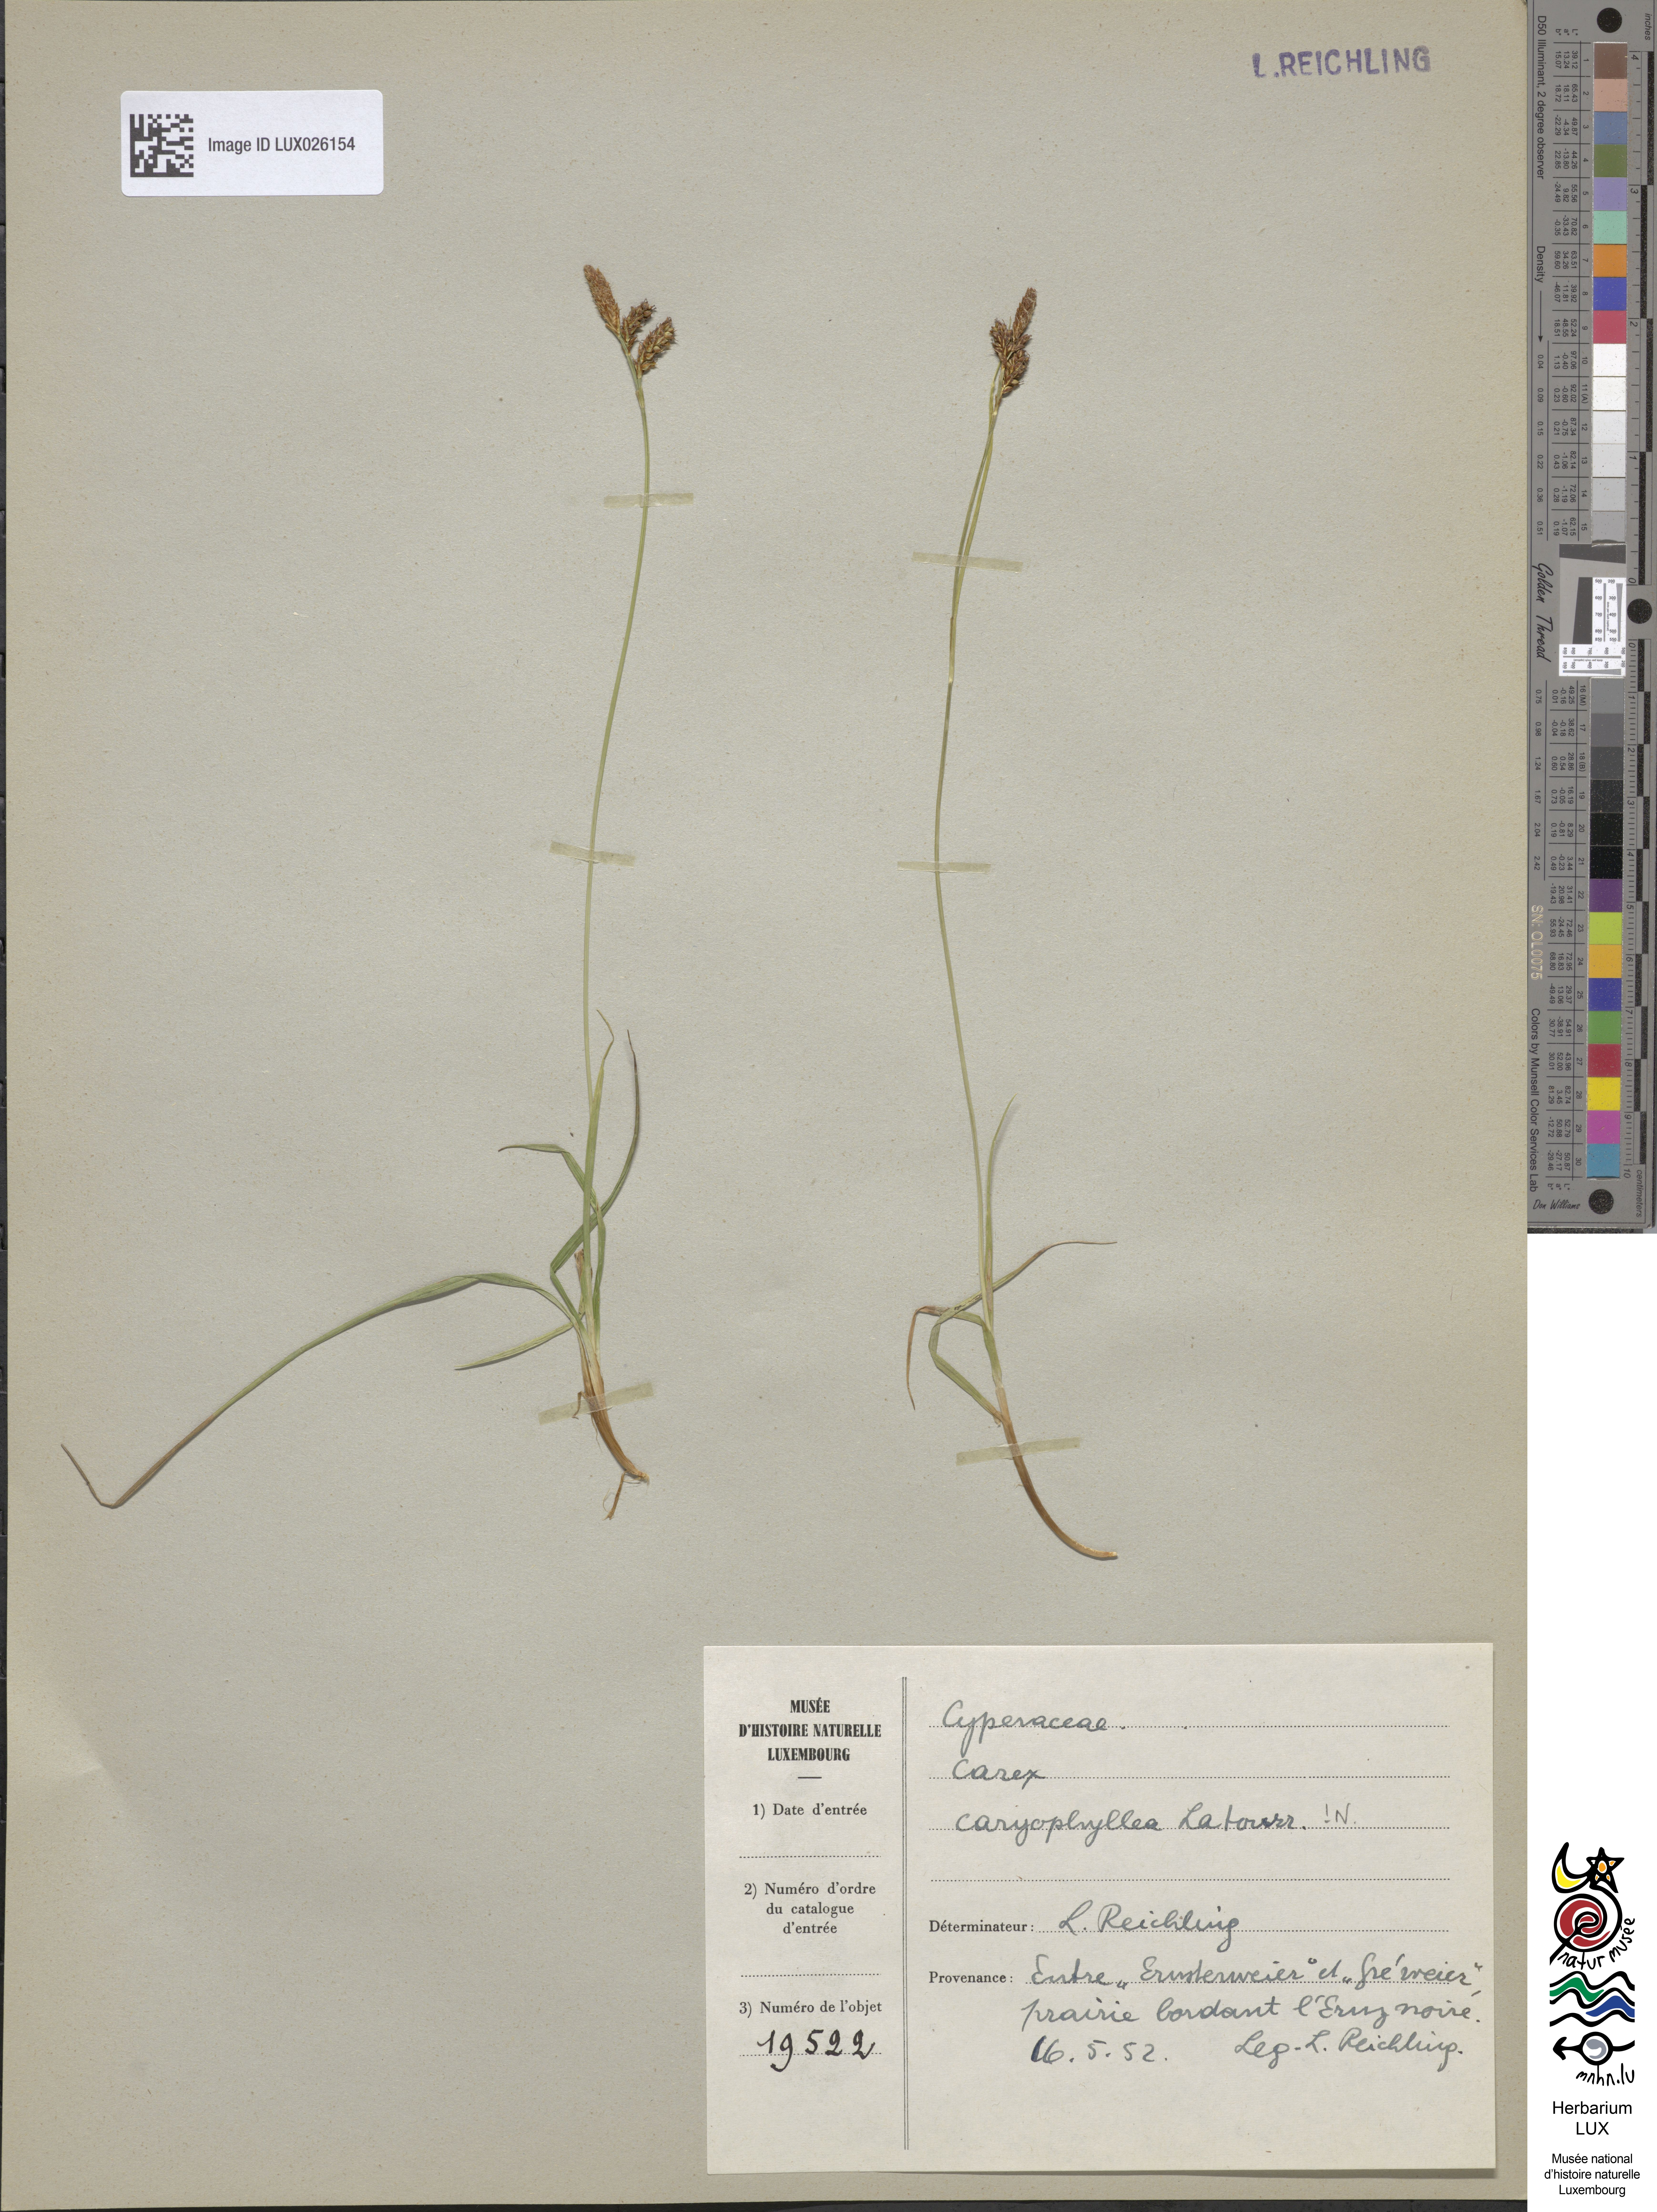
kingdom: Plantae
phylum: Tracheophyta
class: Liliopsida
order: Poales
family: Cyperaceae
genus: Carex
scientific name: Carex caryophyllea
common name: Spring sedge
